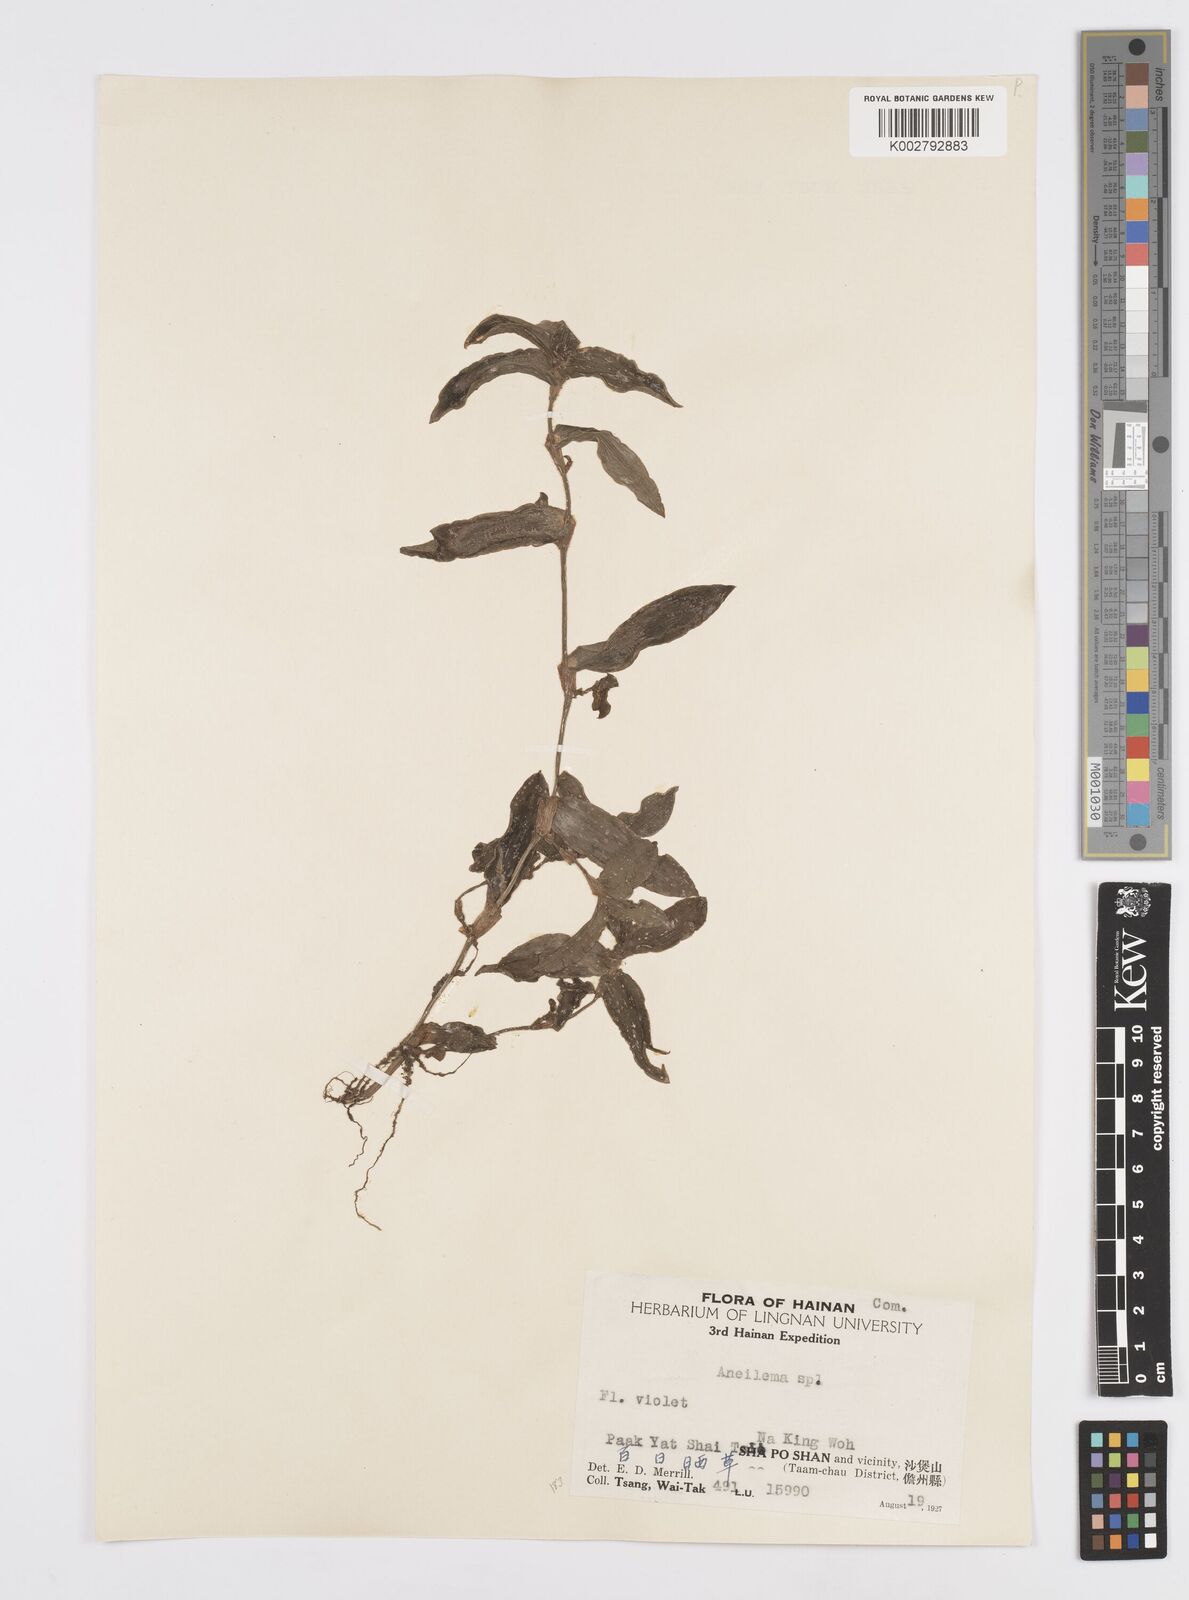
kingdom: Plantae
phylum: Tracheophyta
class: Liliopsida
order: Commelinales
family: Commelinaceae
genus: Murdannia
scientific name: Murdannia
